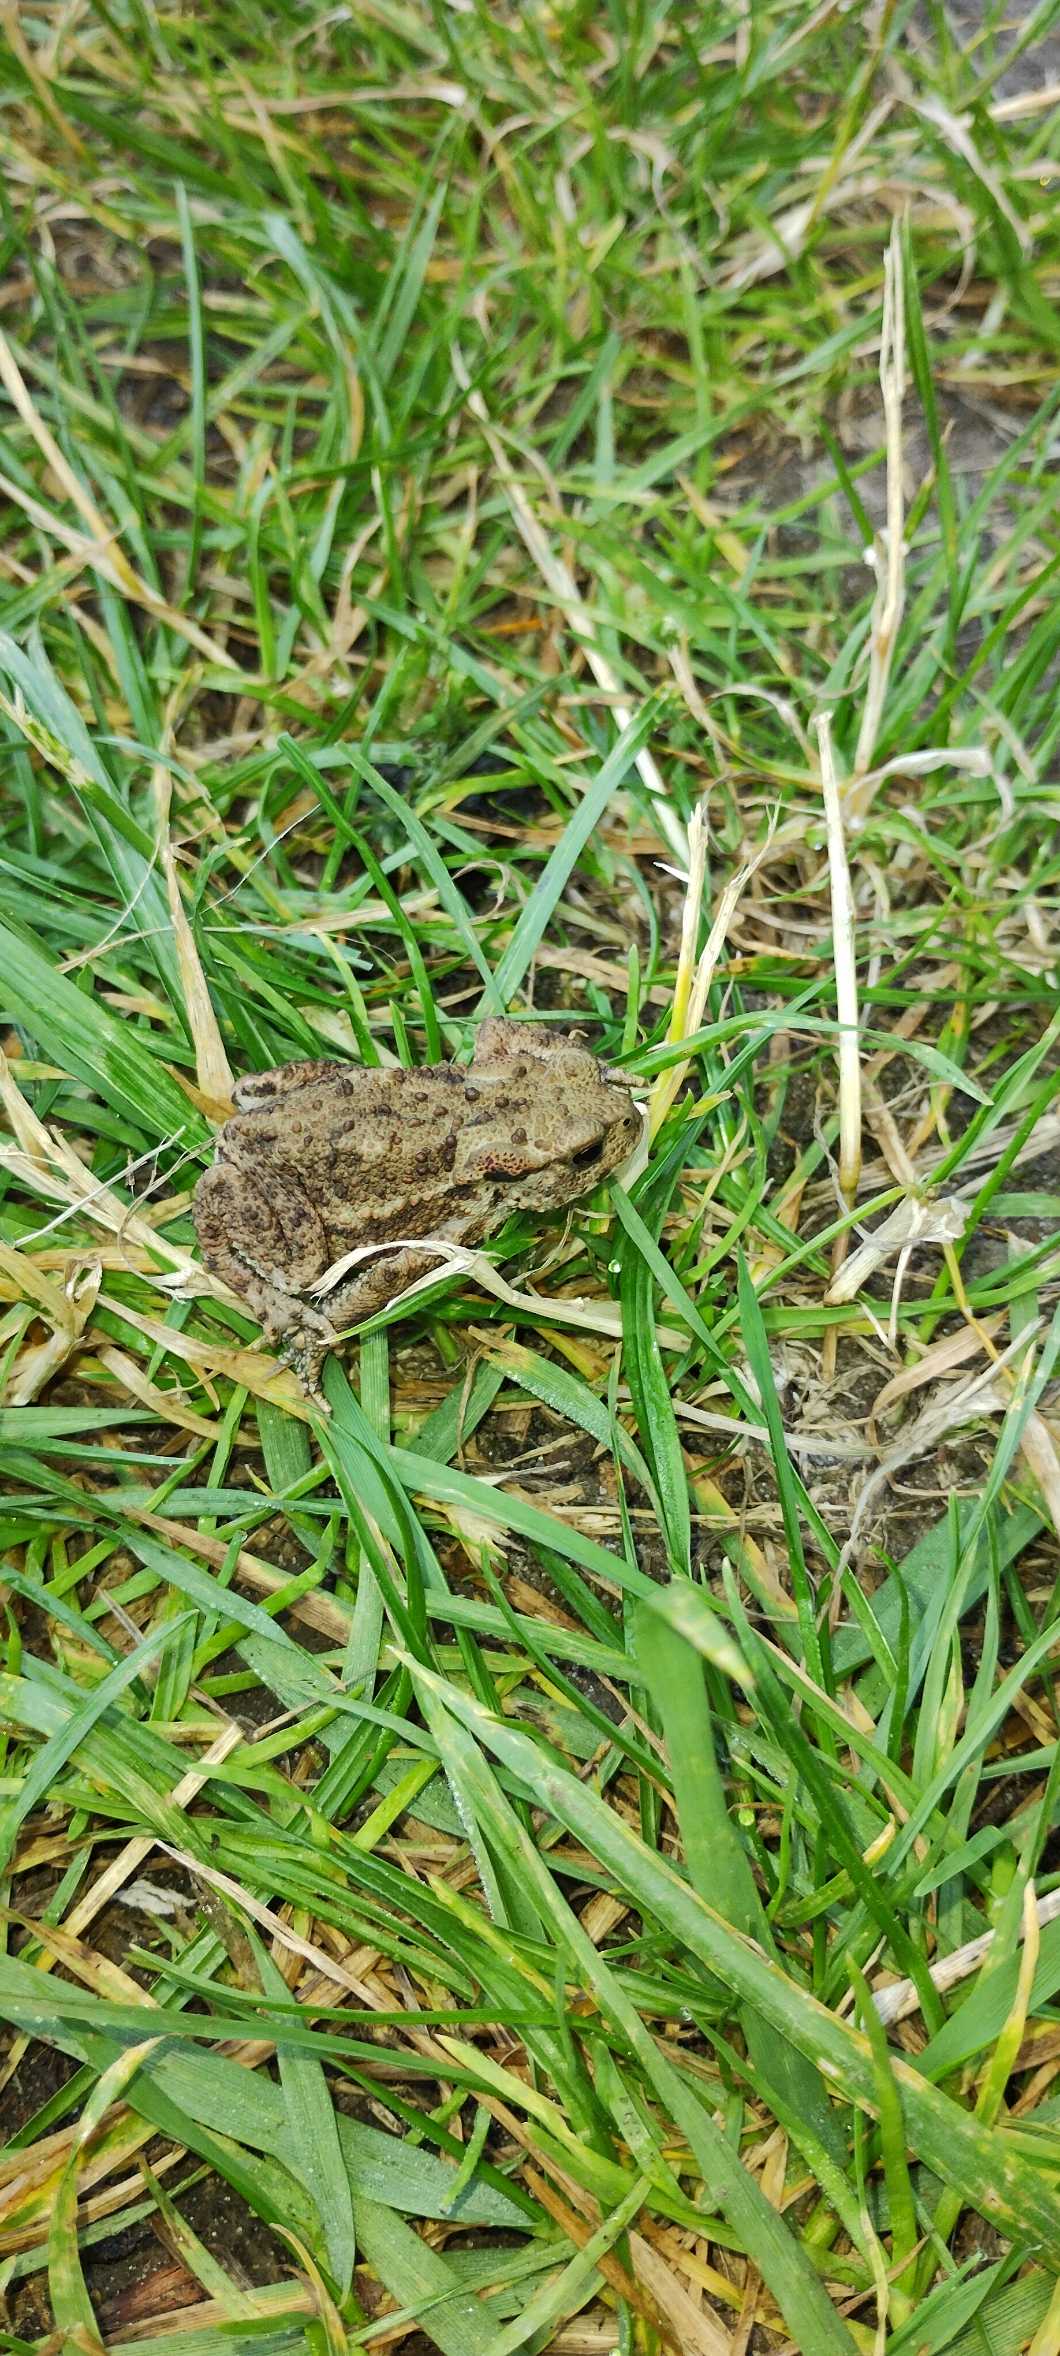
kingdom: Animalia
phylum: Chordata
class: Amphibia
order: Anura
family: Bufonidae
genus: Bufo
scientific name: Bufo bufo
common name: Skrubtudse
